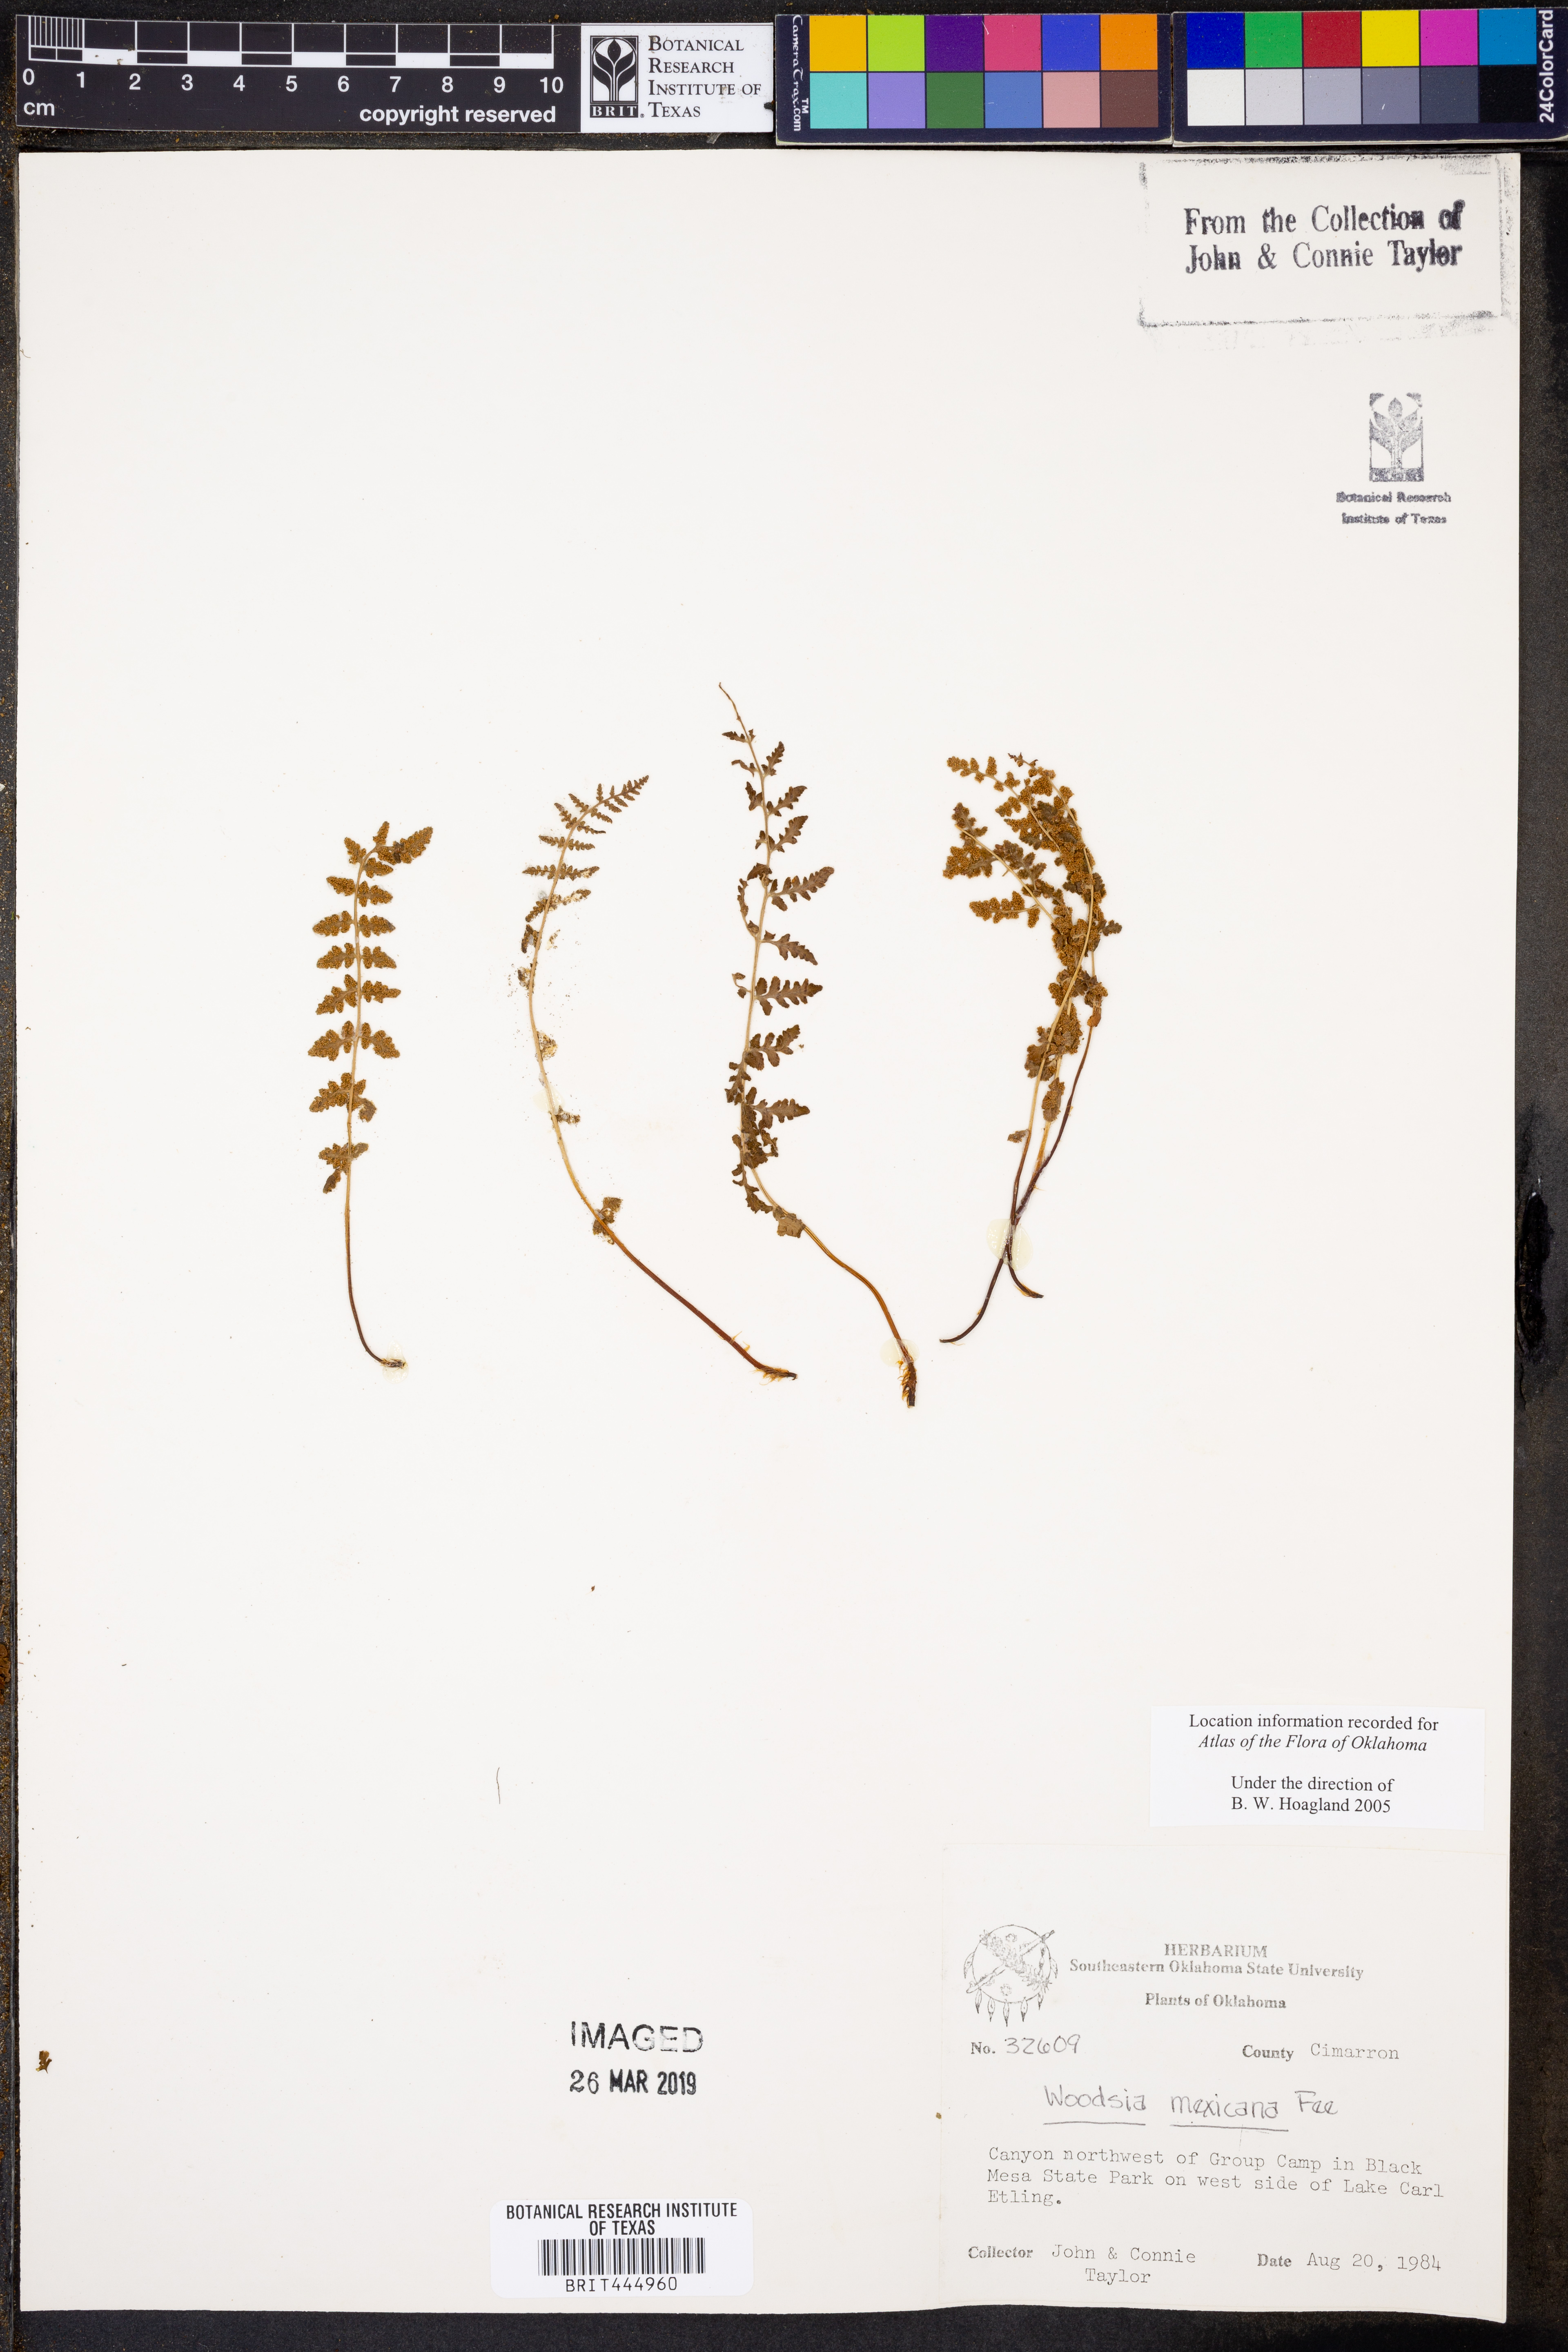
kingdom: Plantae
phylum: Tracheophyta
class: Polypodiopsida
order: Polypodiales
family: Woodsiaceae
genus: Physematium
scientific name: Physematium mexicanum
